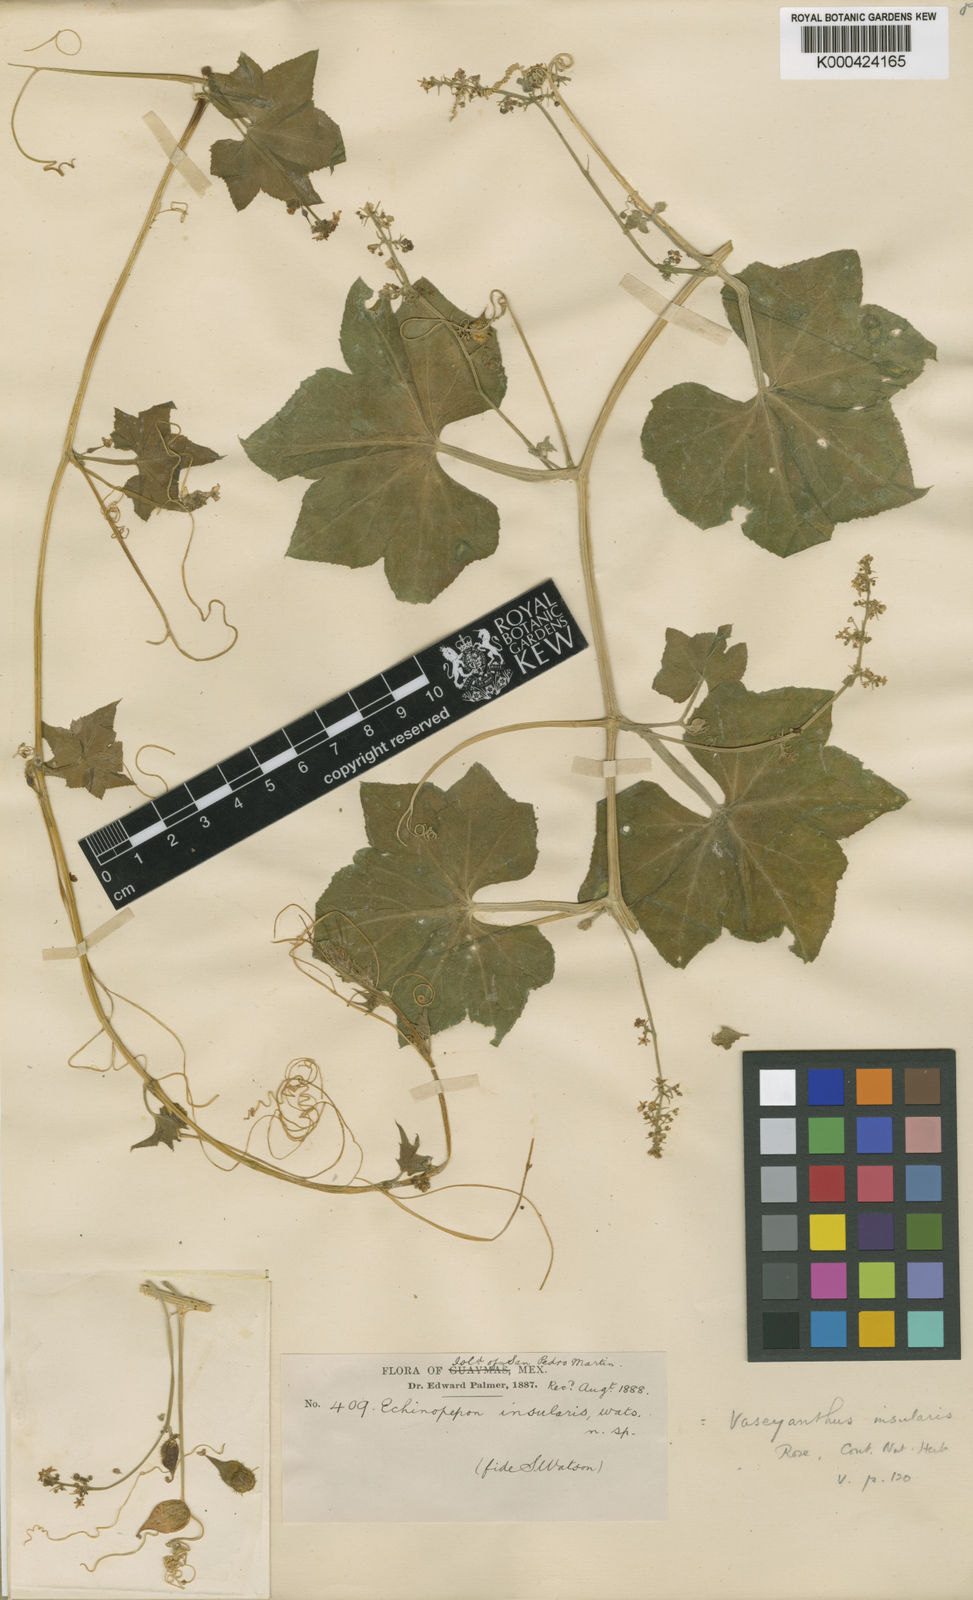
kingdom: Plantae
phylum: Tracheophyta
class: Magnoliopsida
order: Cucurbitales
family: Cucurbitaceae
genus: Echinopepon
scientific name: Echinopepon insularis
